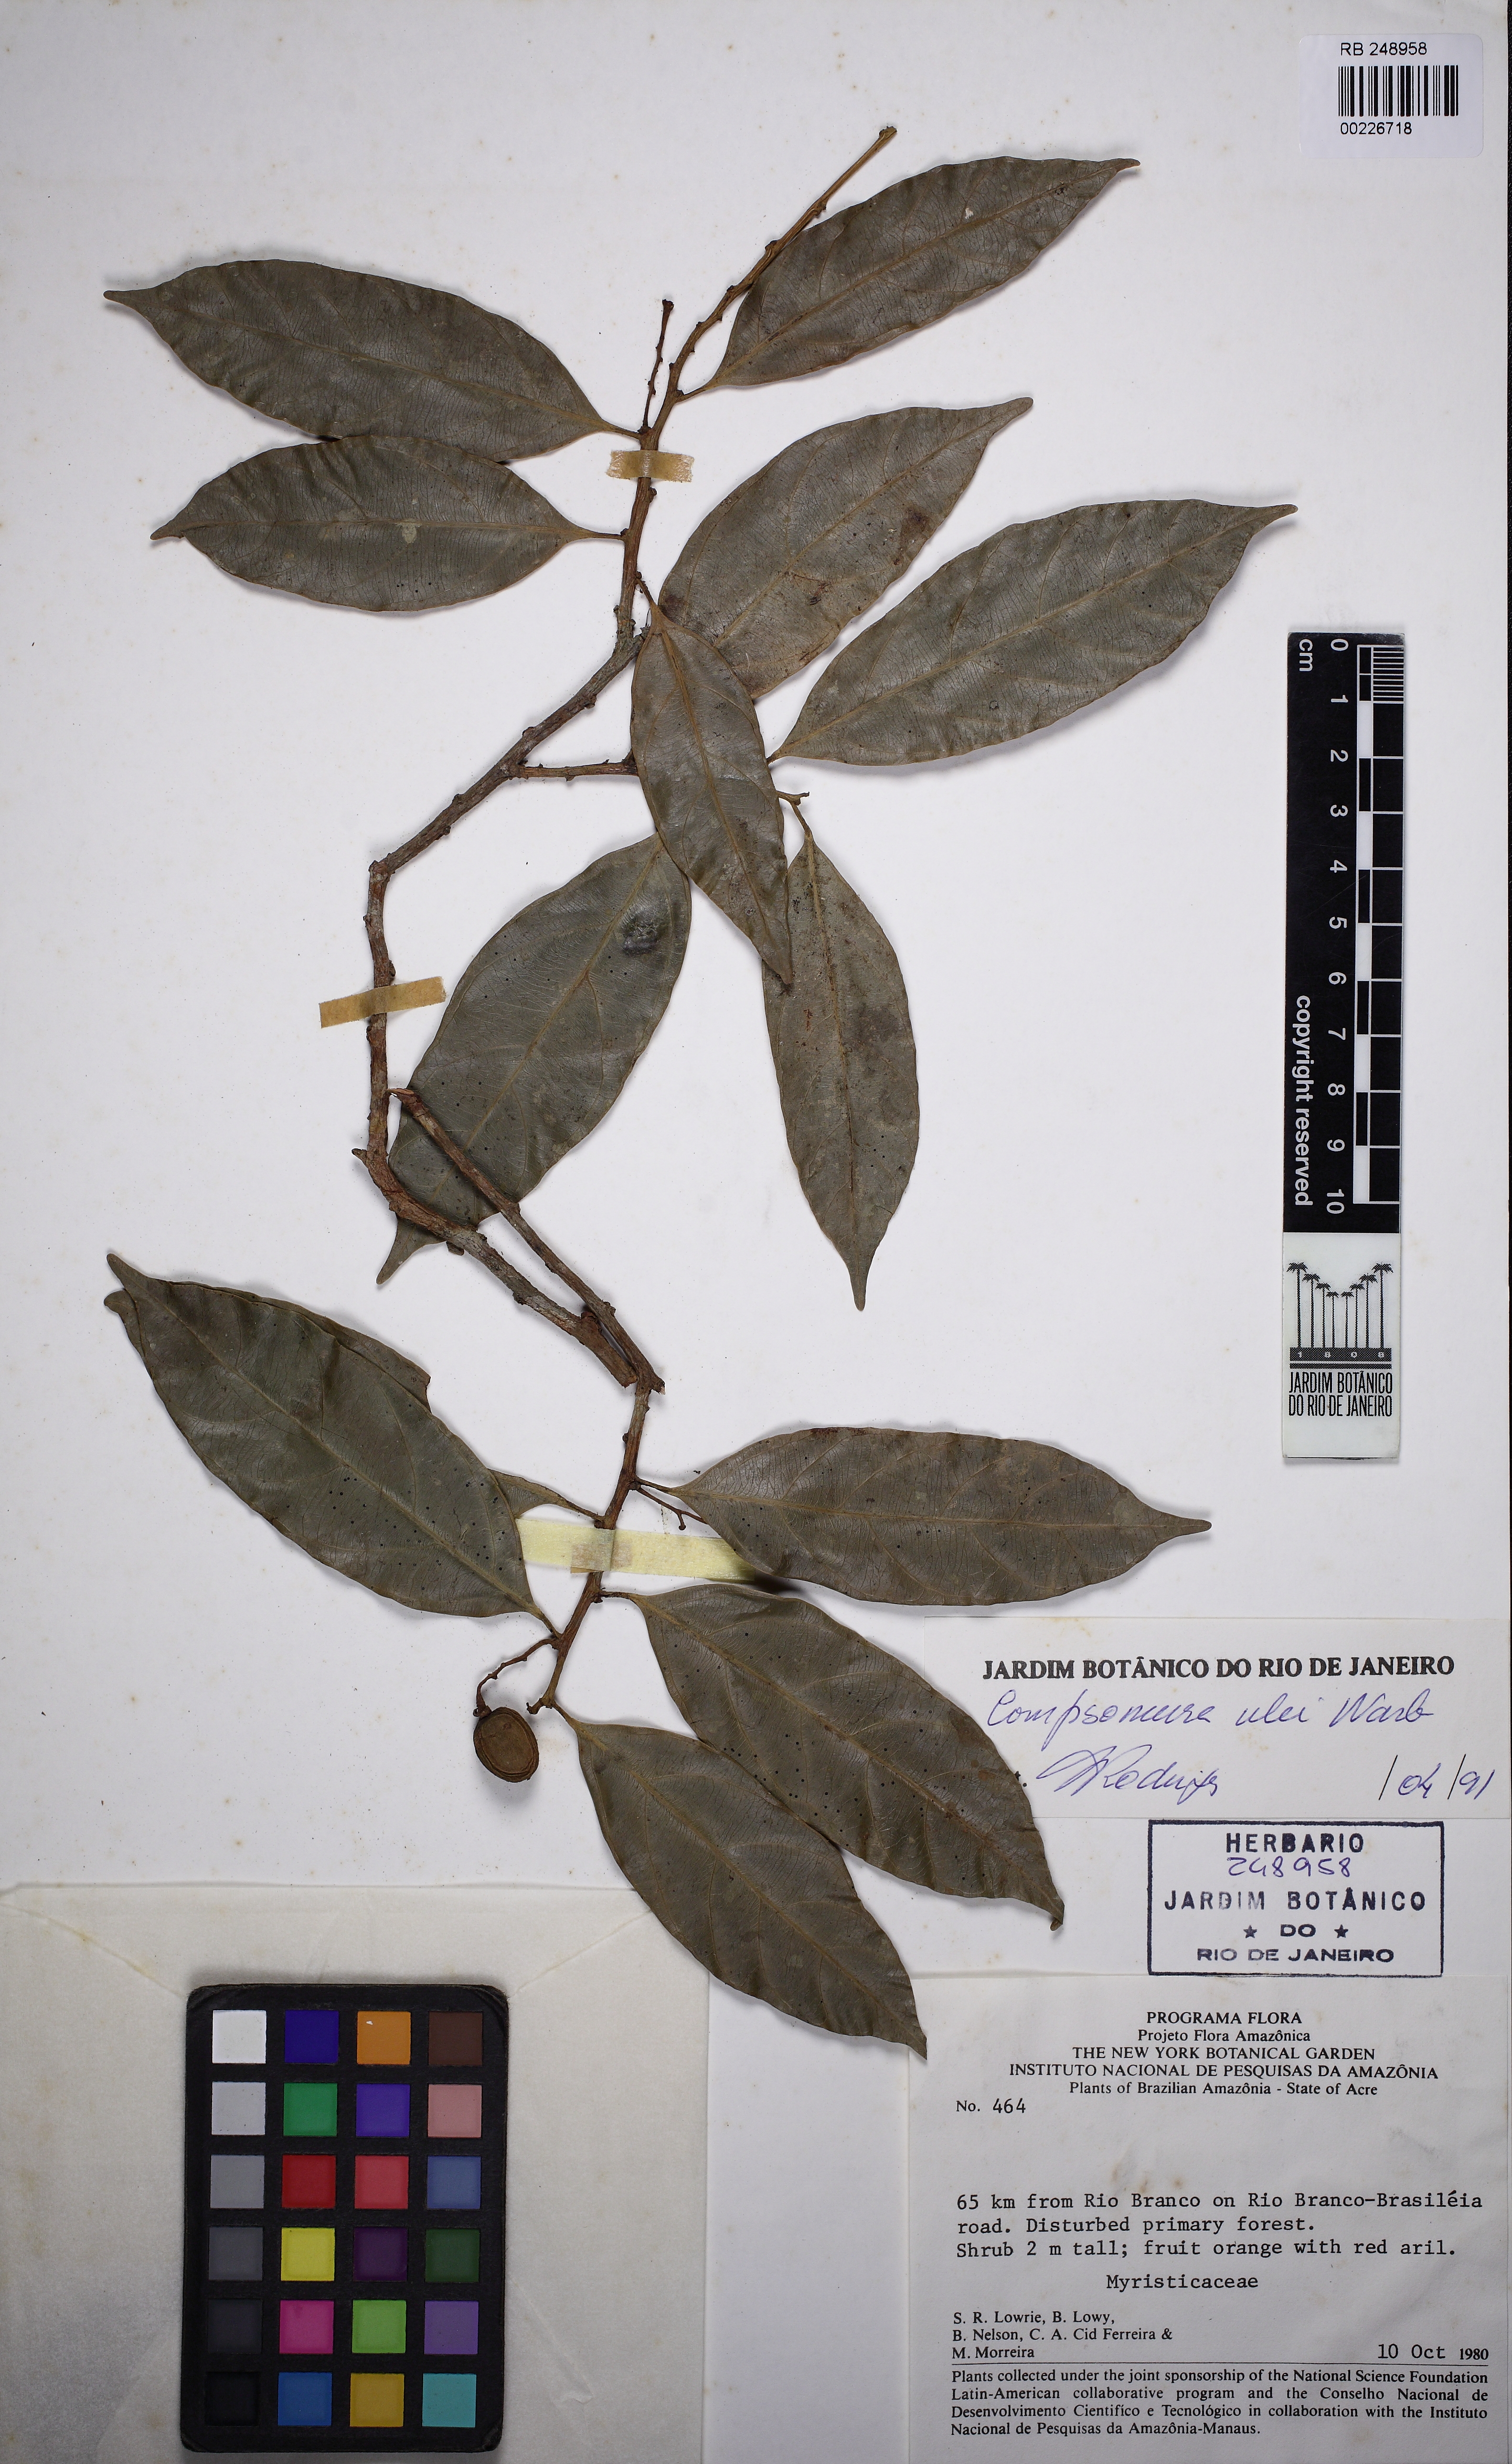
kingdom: Plantae
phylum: Tracheophyta
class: Magnoliopsida
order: Magnoliales
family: Myristicaceae
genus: Compsoneura
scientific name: Compsoneura ulei
